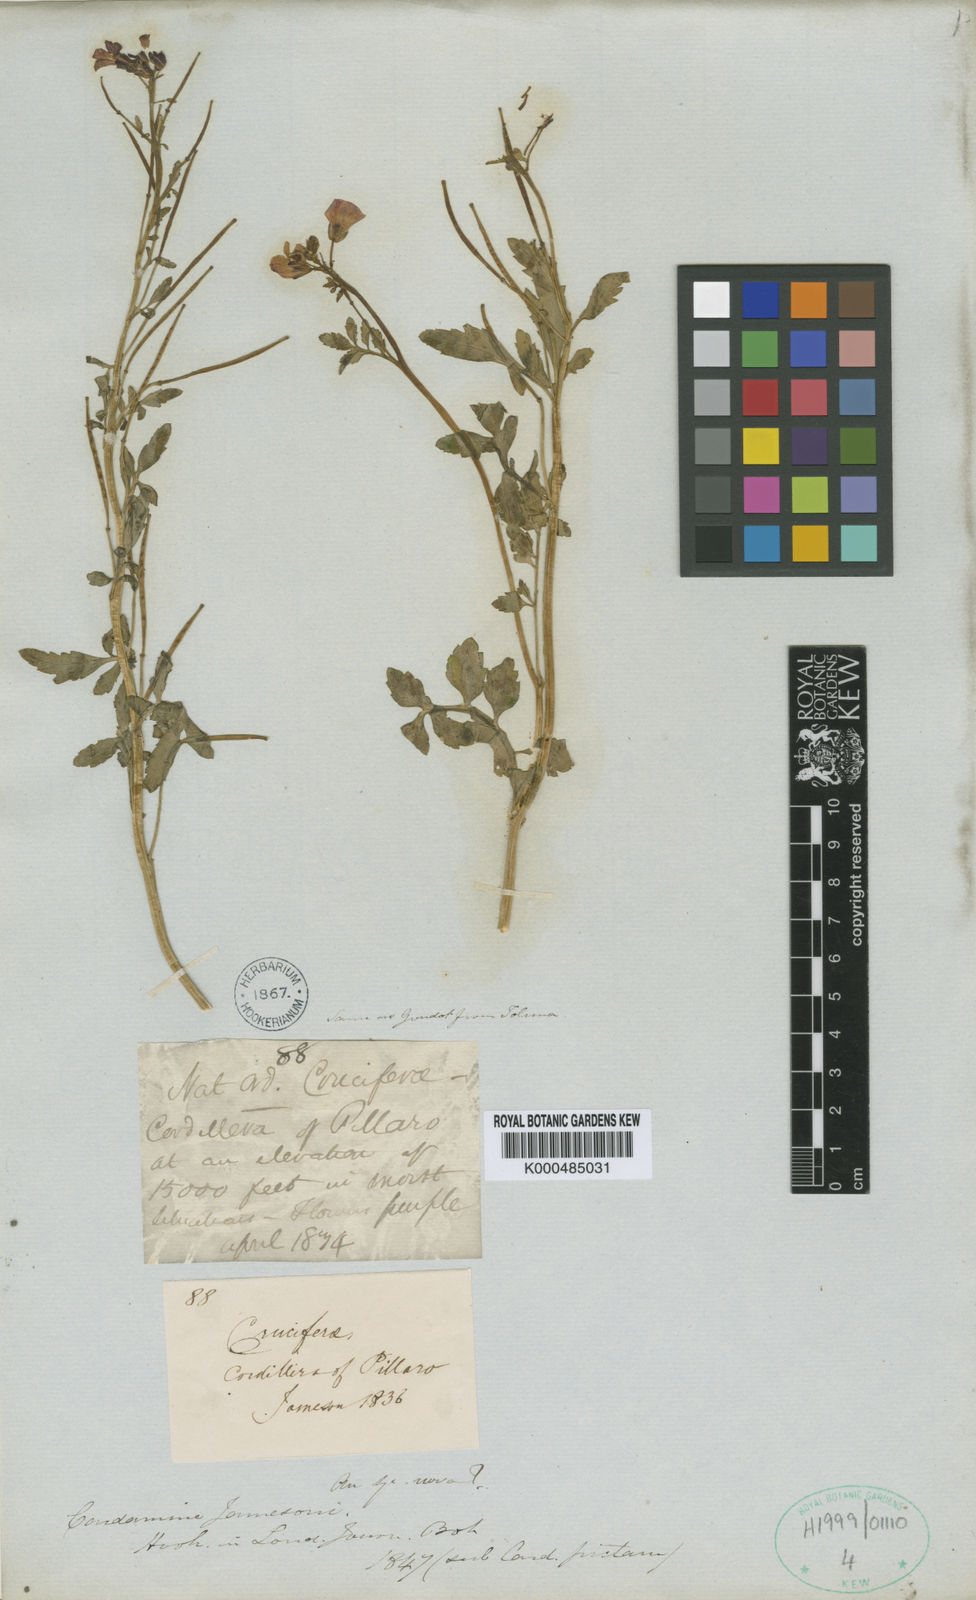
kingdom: Plantae
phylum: Tracheophyta
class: Magnoliopsida
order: Brassicales
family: Brassicaceae
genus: Cardamine
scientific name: Cardamine jamesonii
